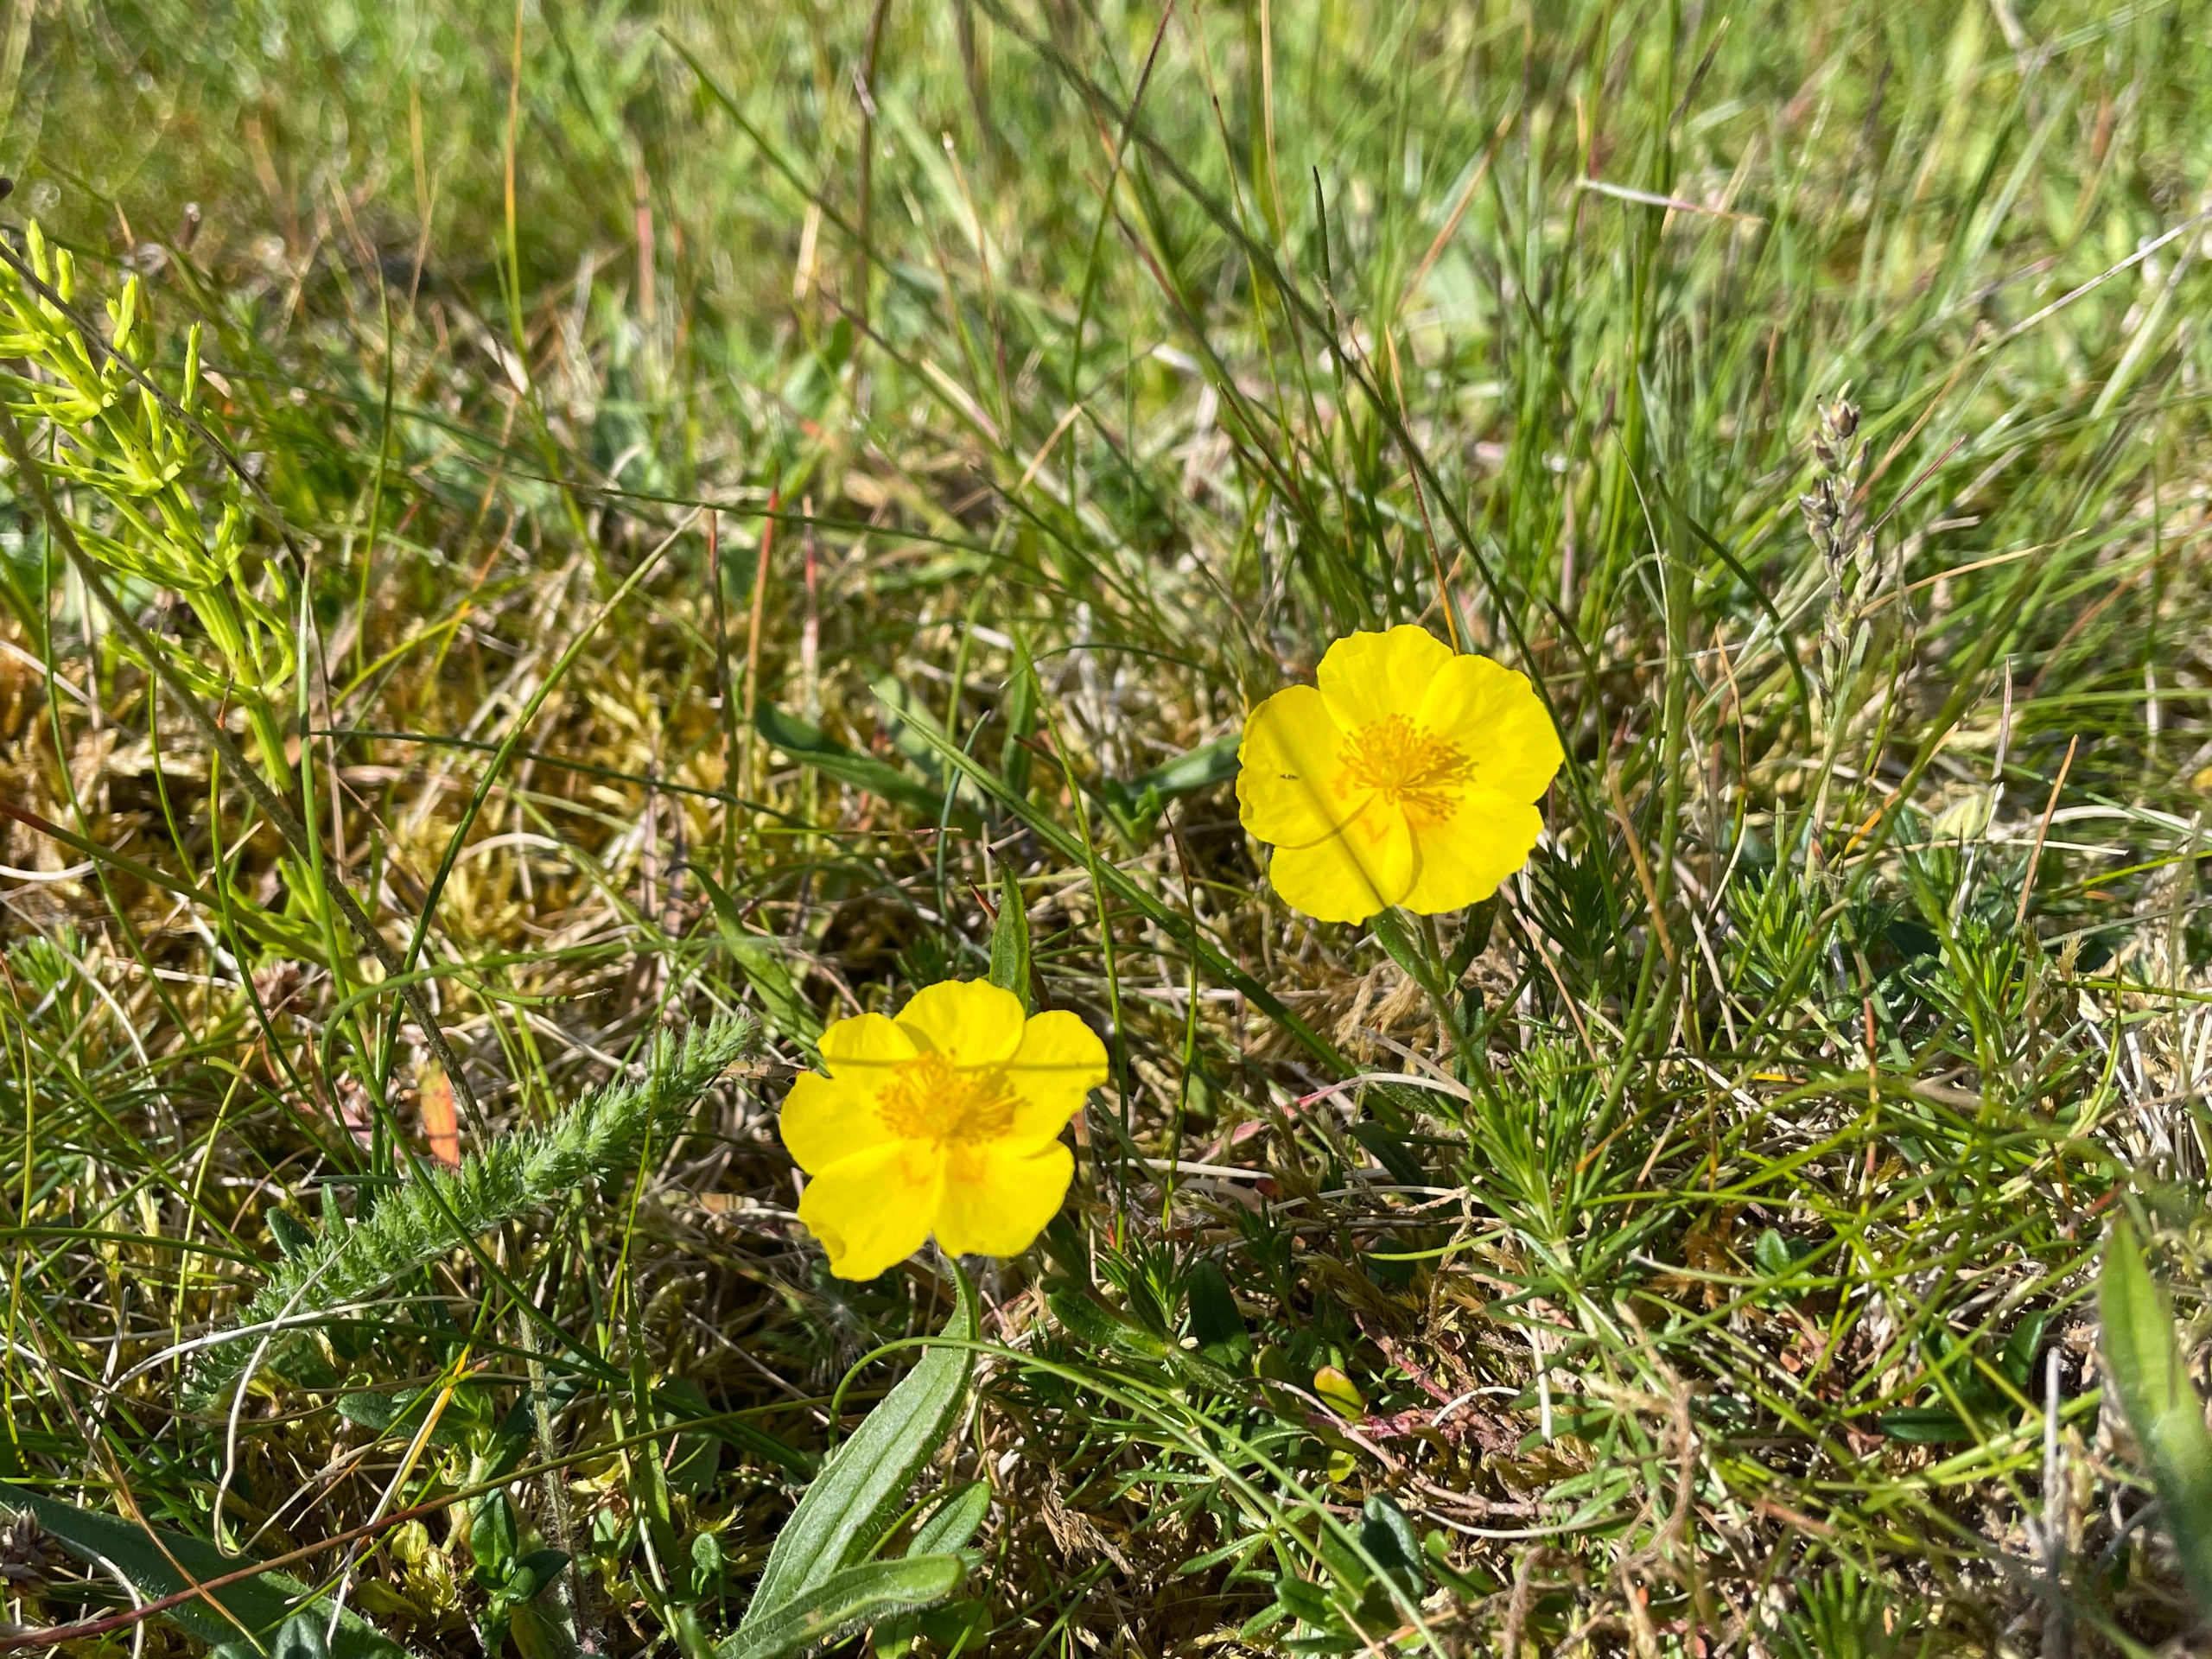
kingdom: Plantae
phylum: Tracheophyta
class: Magnoliopsida
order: Malvales
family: Cistaceae
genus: Helianthemum
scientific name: Helianthemum nummularium
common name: Bakke-soløje
